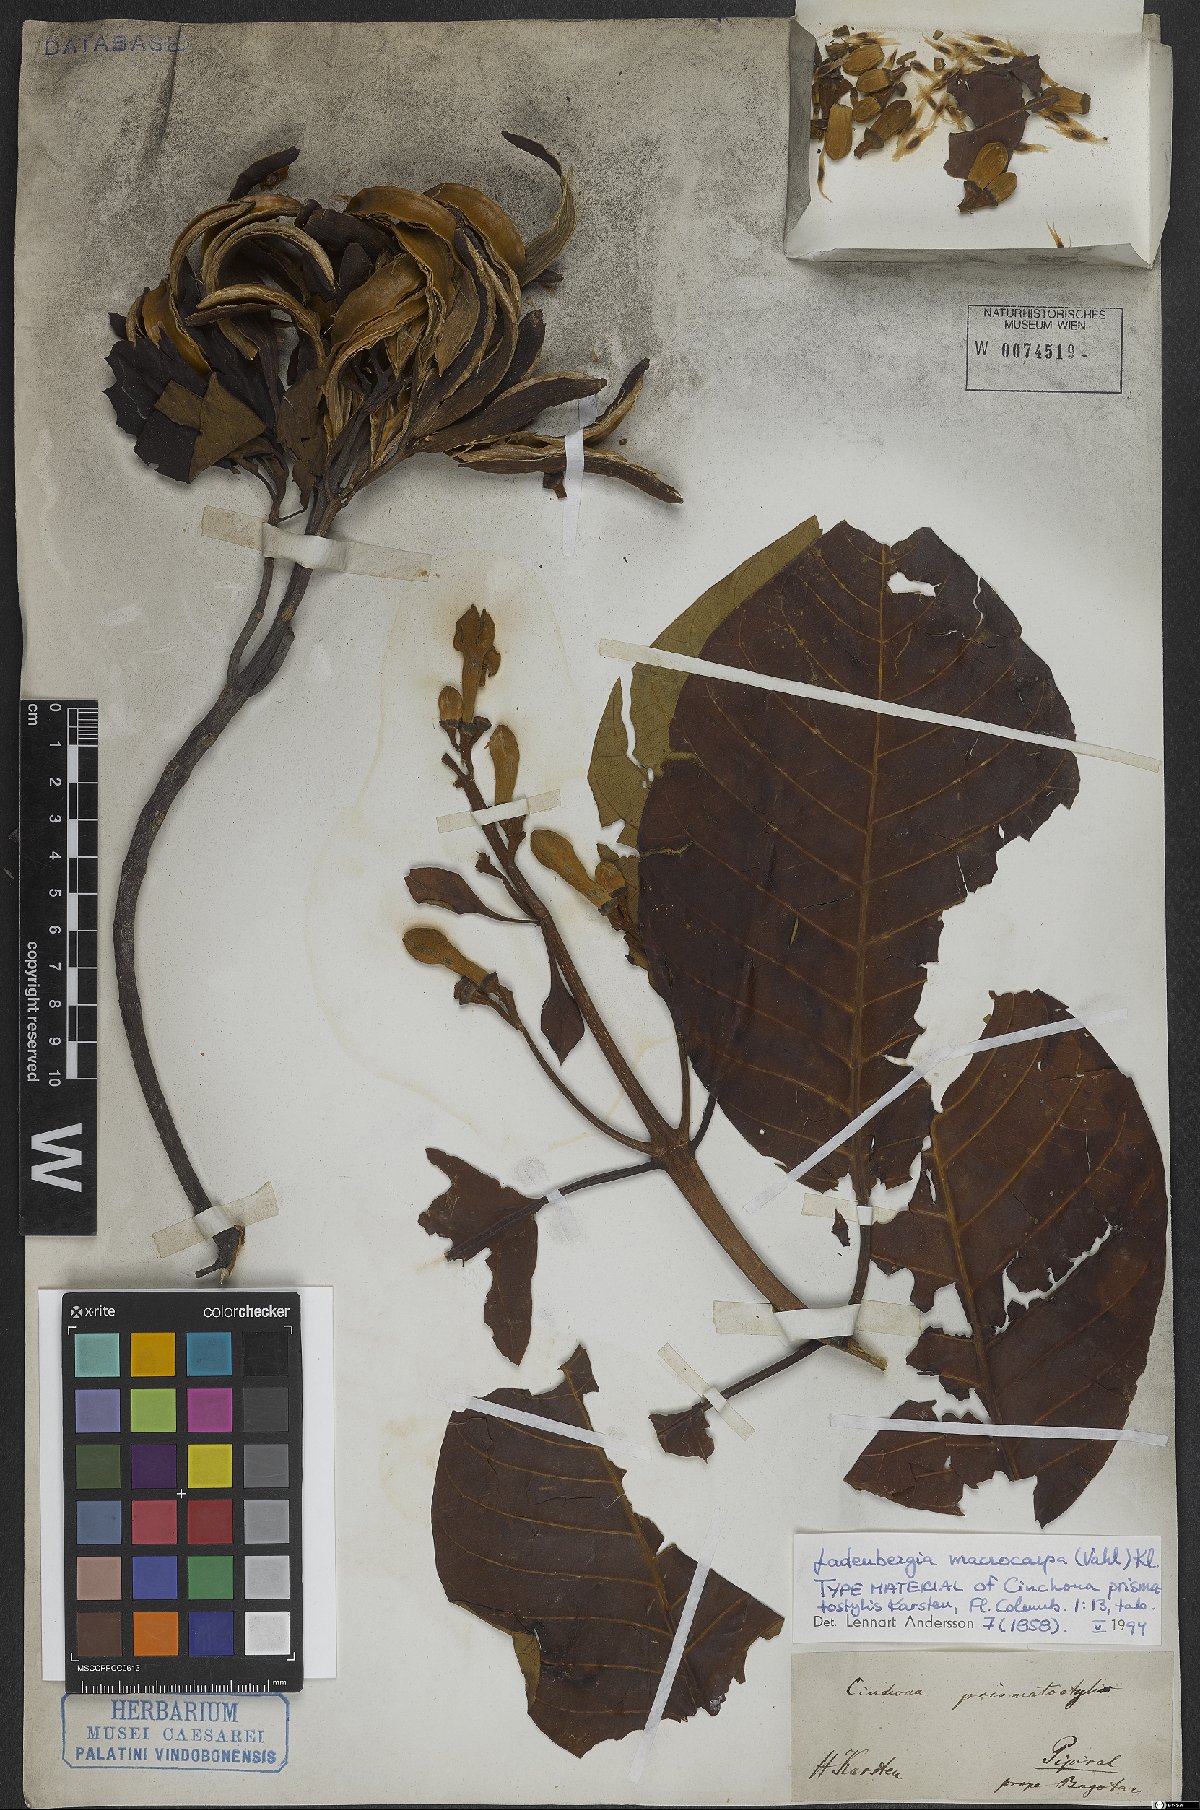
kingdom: Plantae
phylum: Tracheophyta
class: Magnoliopsida
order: Gentianales
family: Rubiaceae
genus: Ladenbergia
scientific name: Ladenbergia macrocarpa
